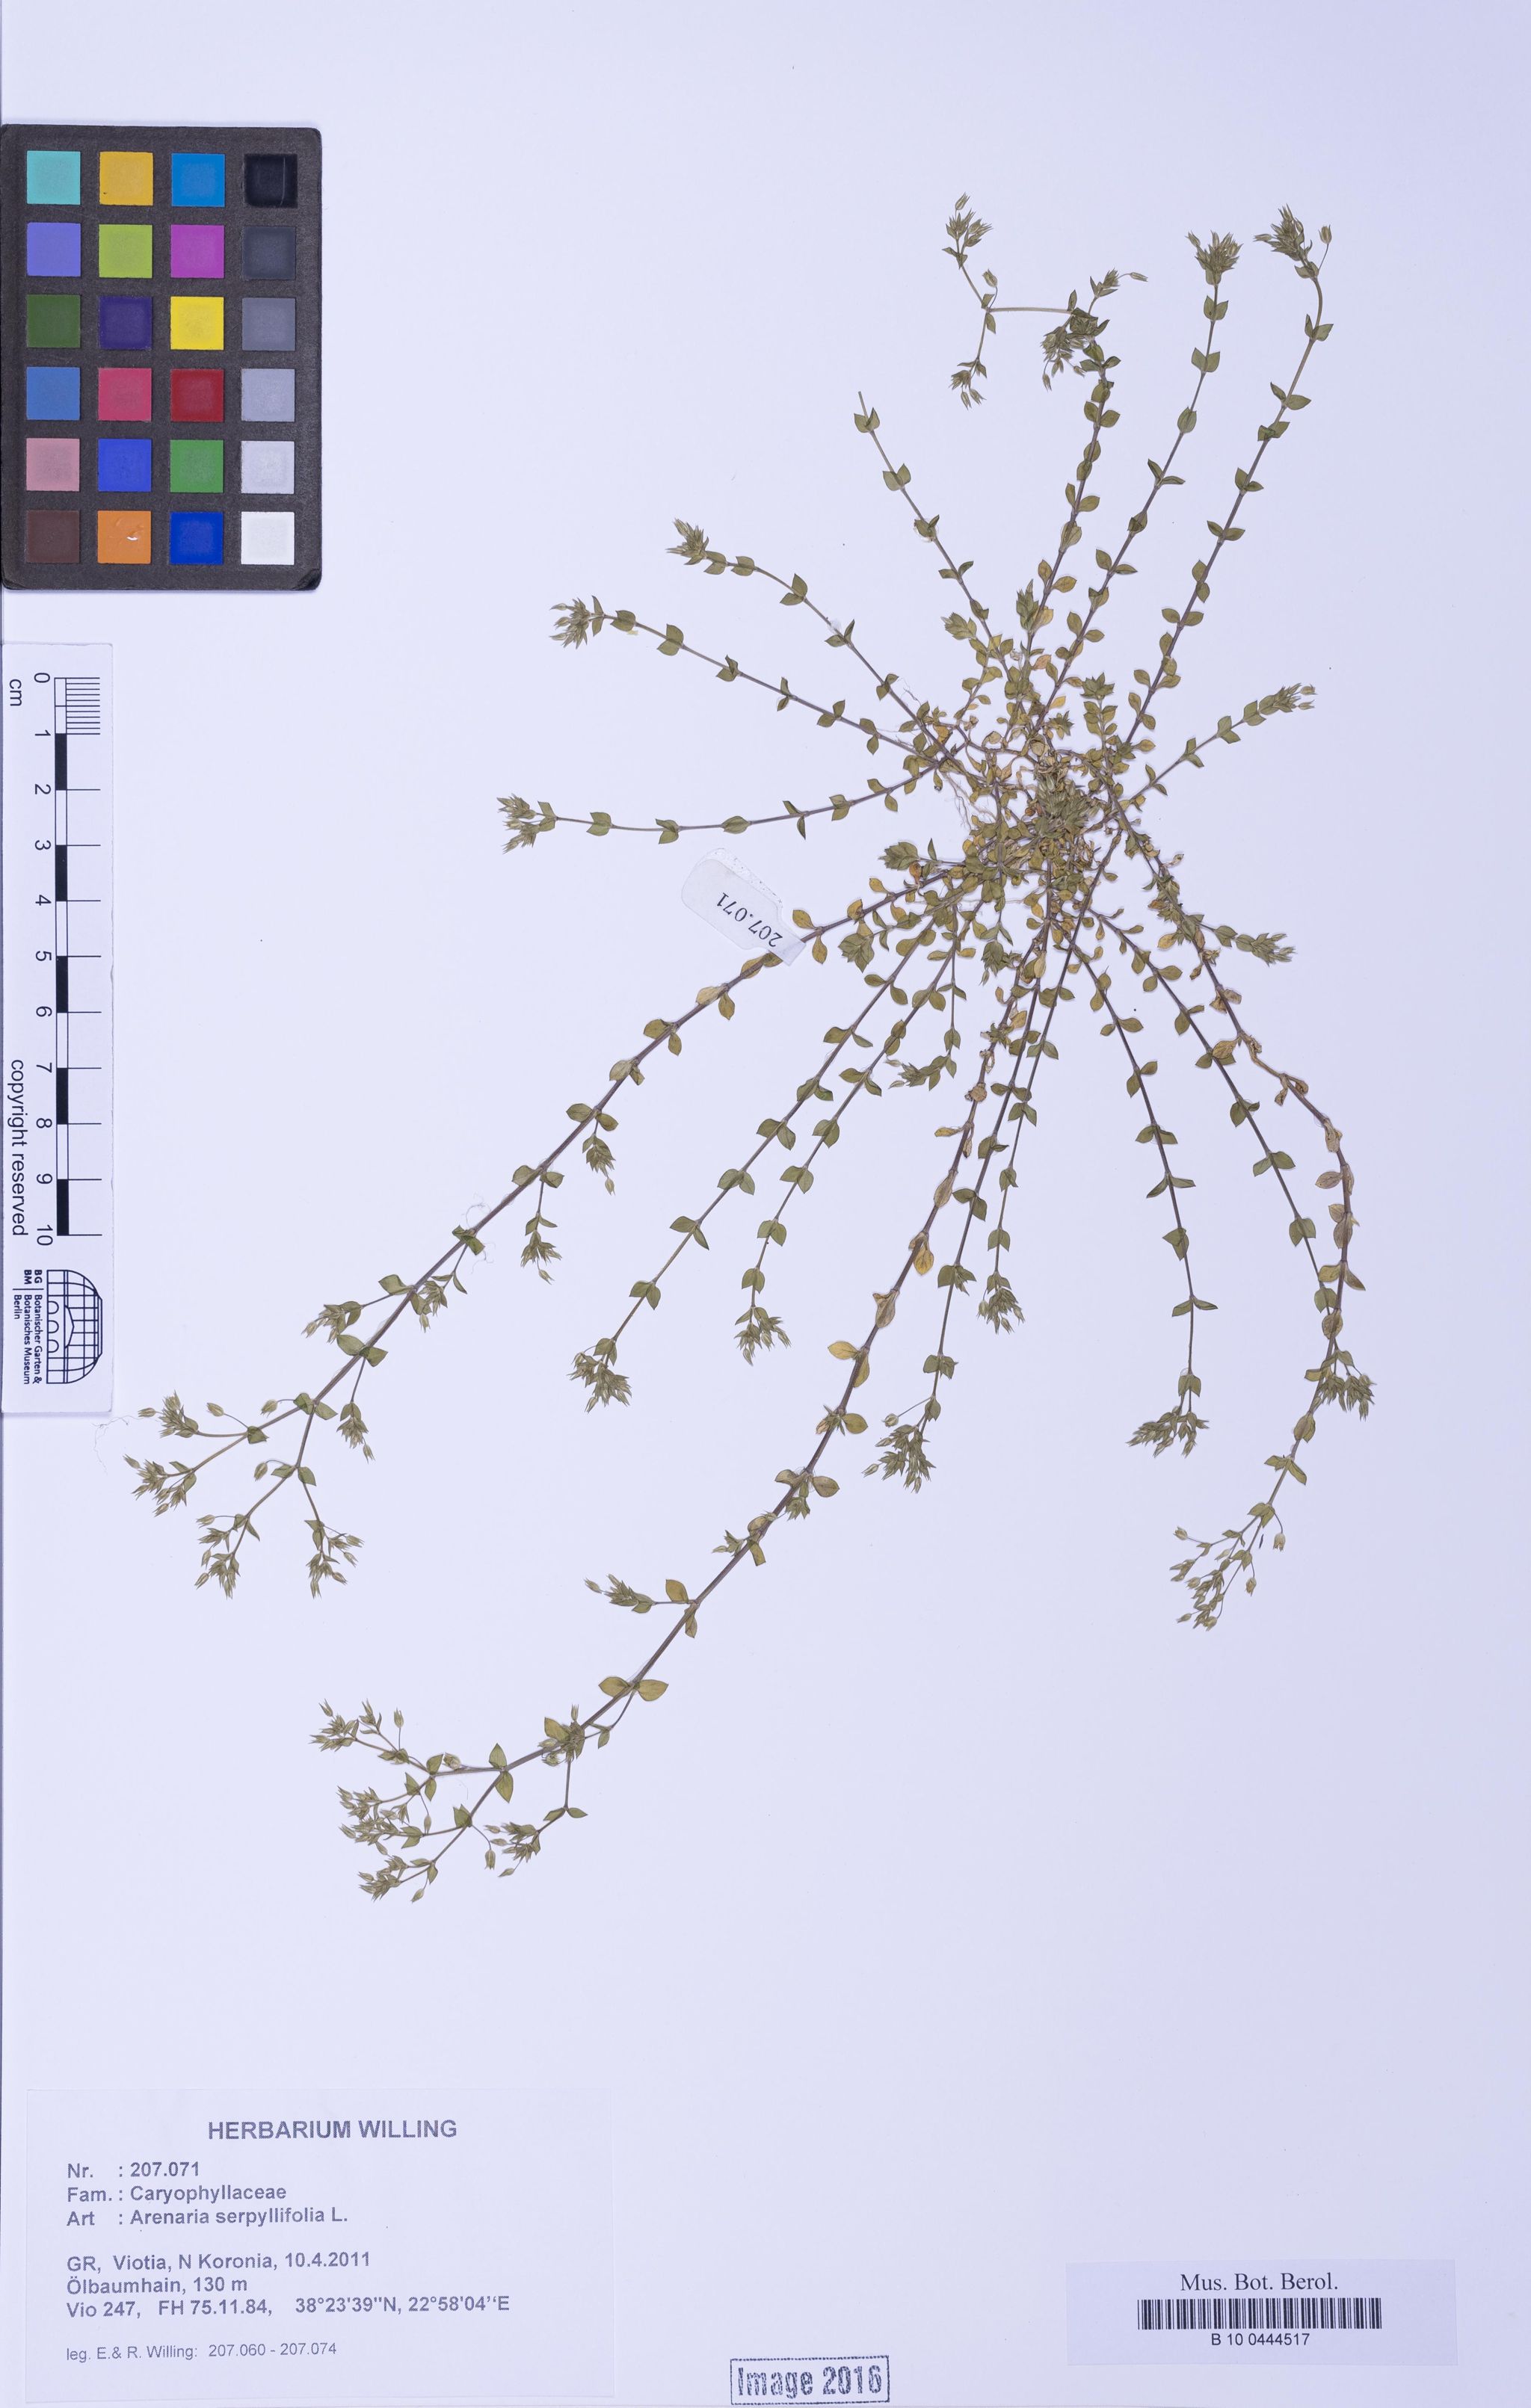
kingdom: Plantae
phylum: Tracheophyta
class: Magnoliopsida
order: Caryophyllales
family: Caryophyllaceae
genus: Arenaria
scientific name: Arenaria serpyllifolia
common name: Thyme-leaved sandwort
